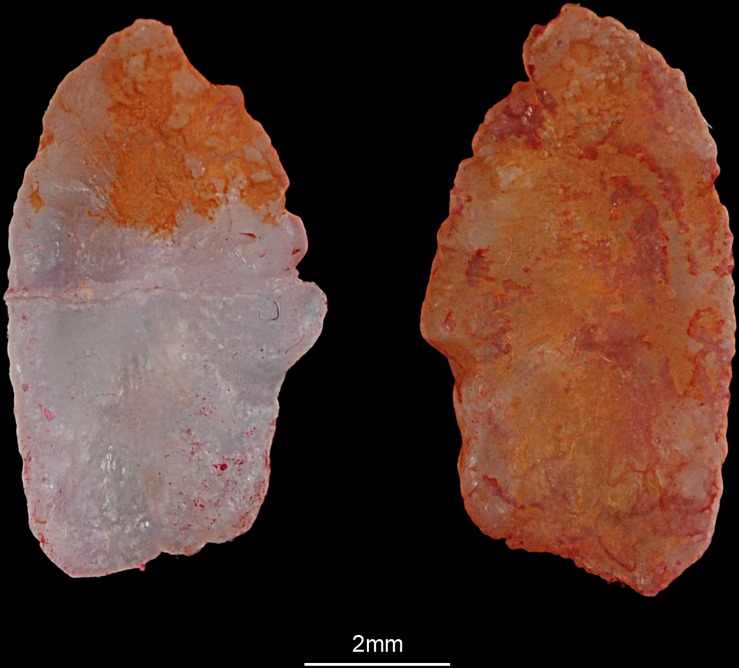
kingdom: Animalia
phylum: Chordata
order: Perciformes
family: Sparidae
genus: Rhabdosargus
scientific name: Rhabdosargus sarba
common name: Goldlined seabream
